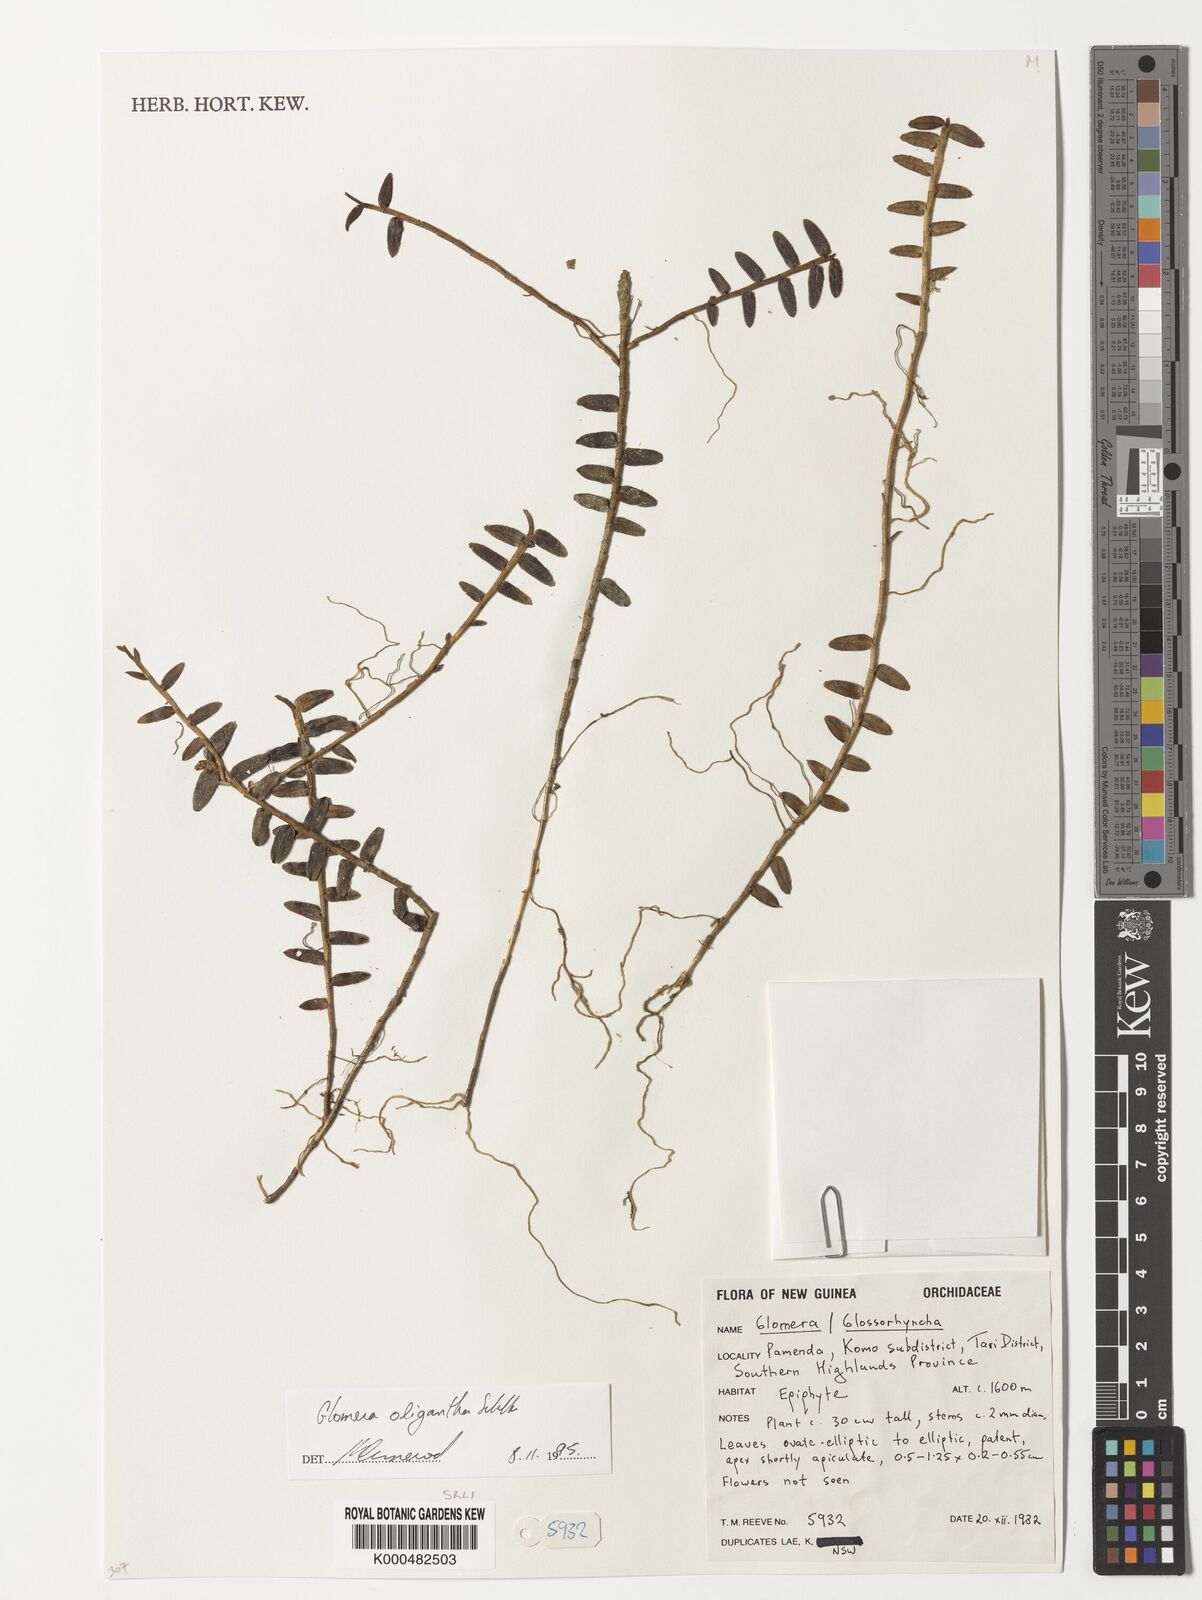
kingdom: Plantae
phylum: Tracheophyta
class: Liliopsida
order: Asparagales
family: Orchidaceae
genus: Glomera
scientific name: Glomera oligantha
